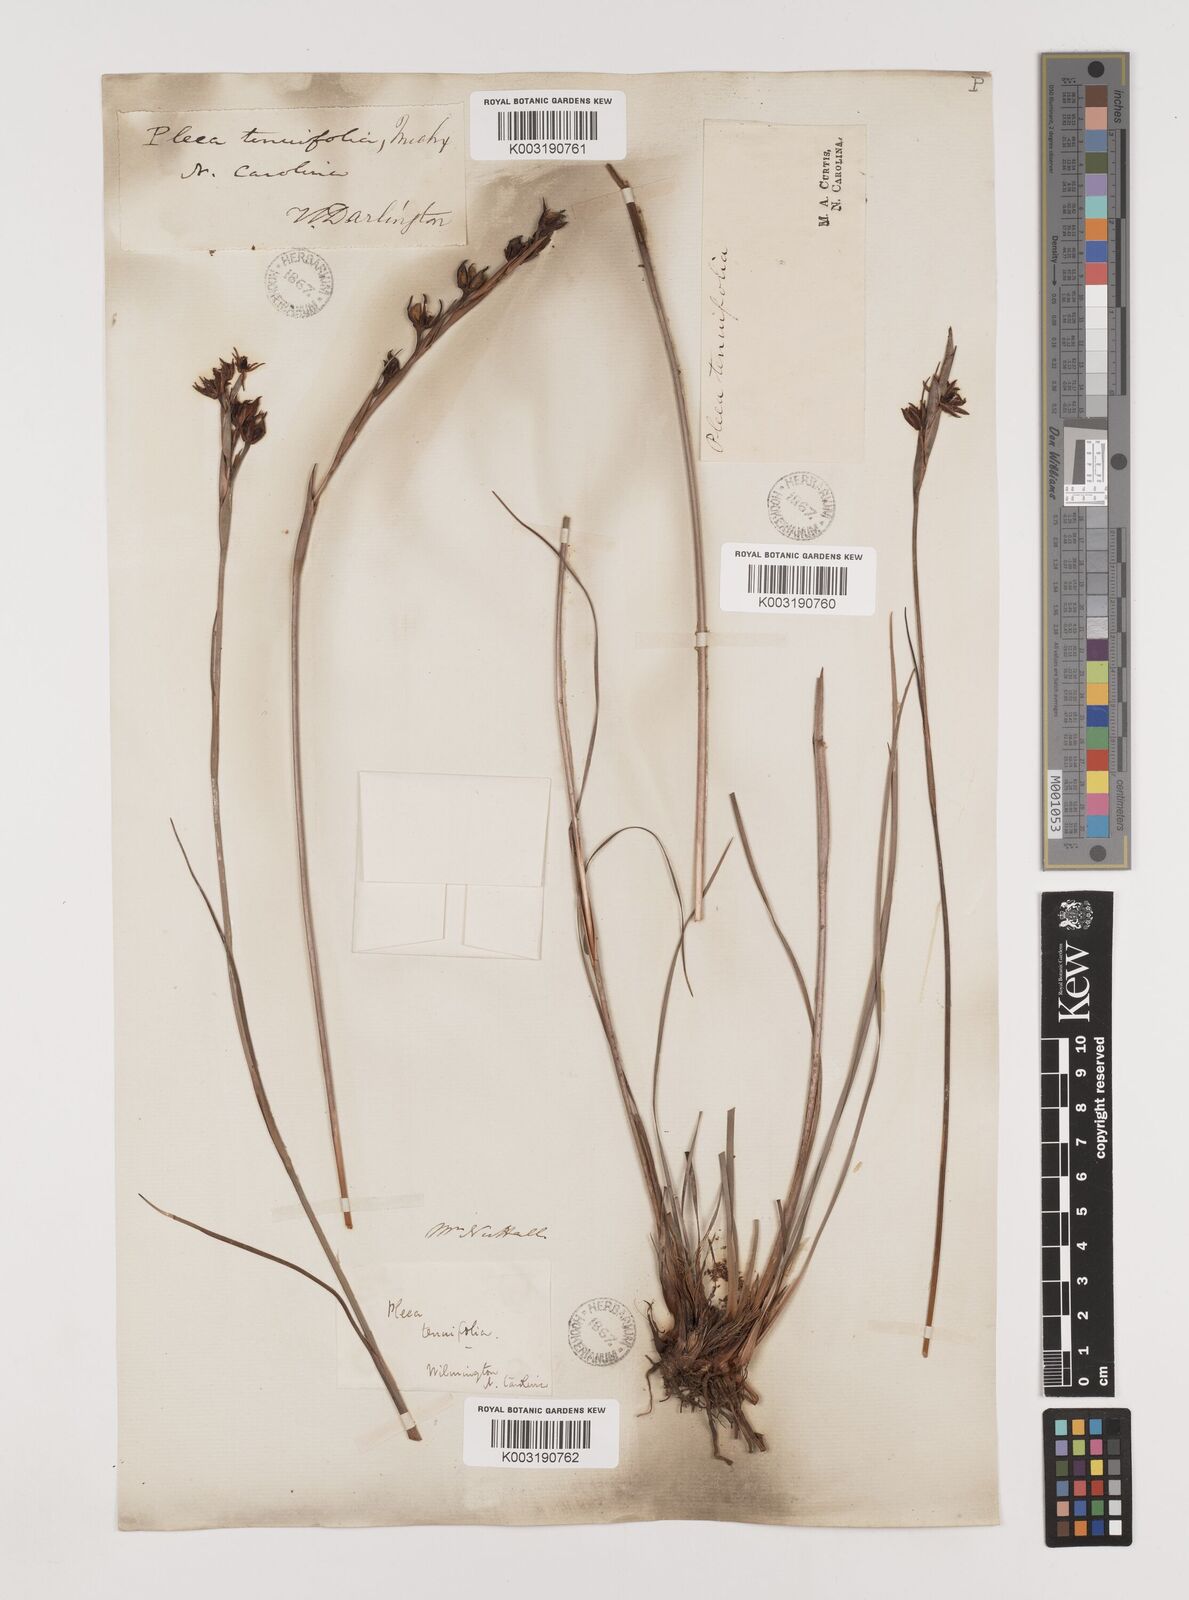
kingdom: Plantae
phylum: Tracheophyta
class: Liliopsida
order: Alismatales
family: Tofieldiaceae
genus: Pleea
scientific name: Pleea tenuifolia
